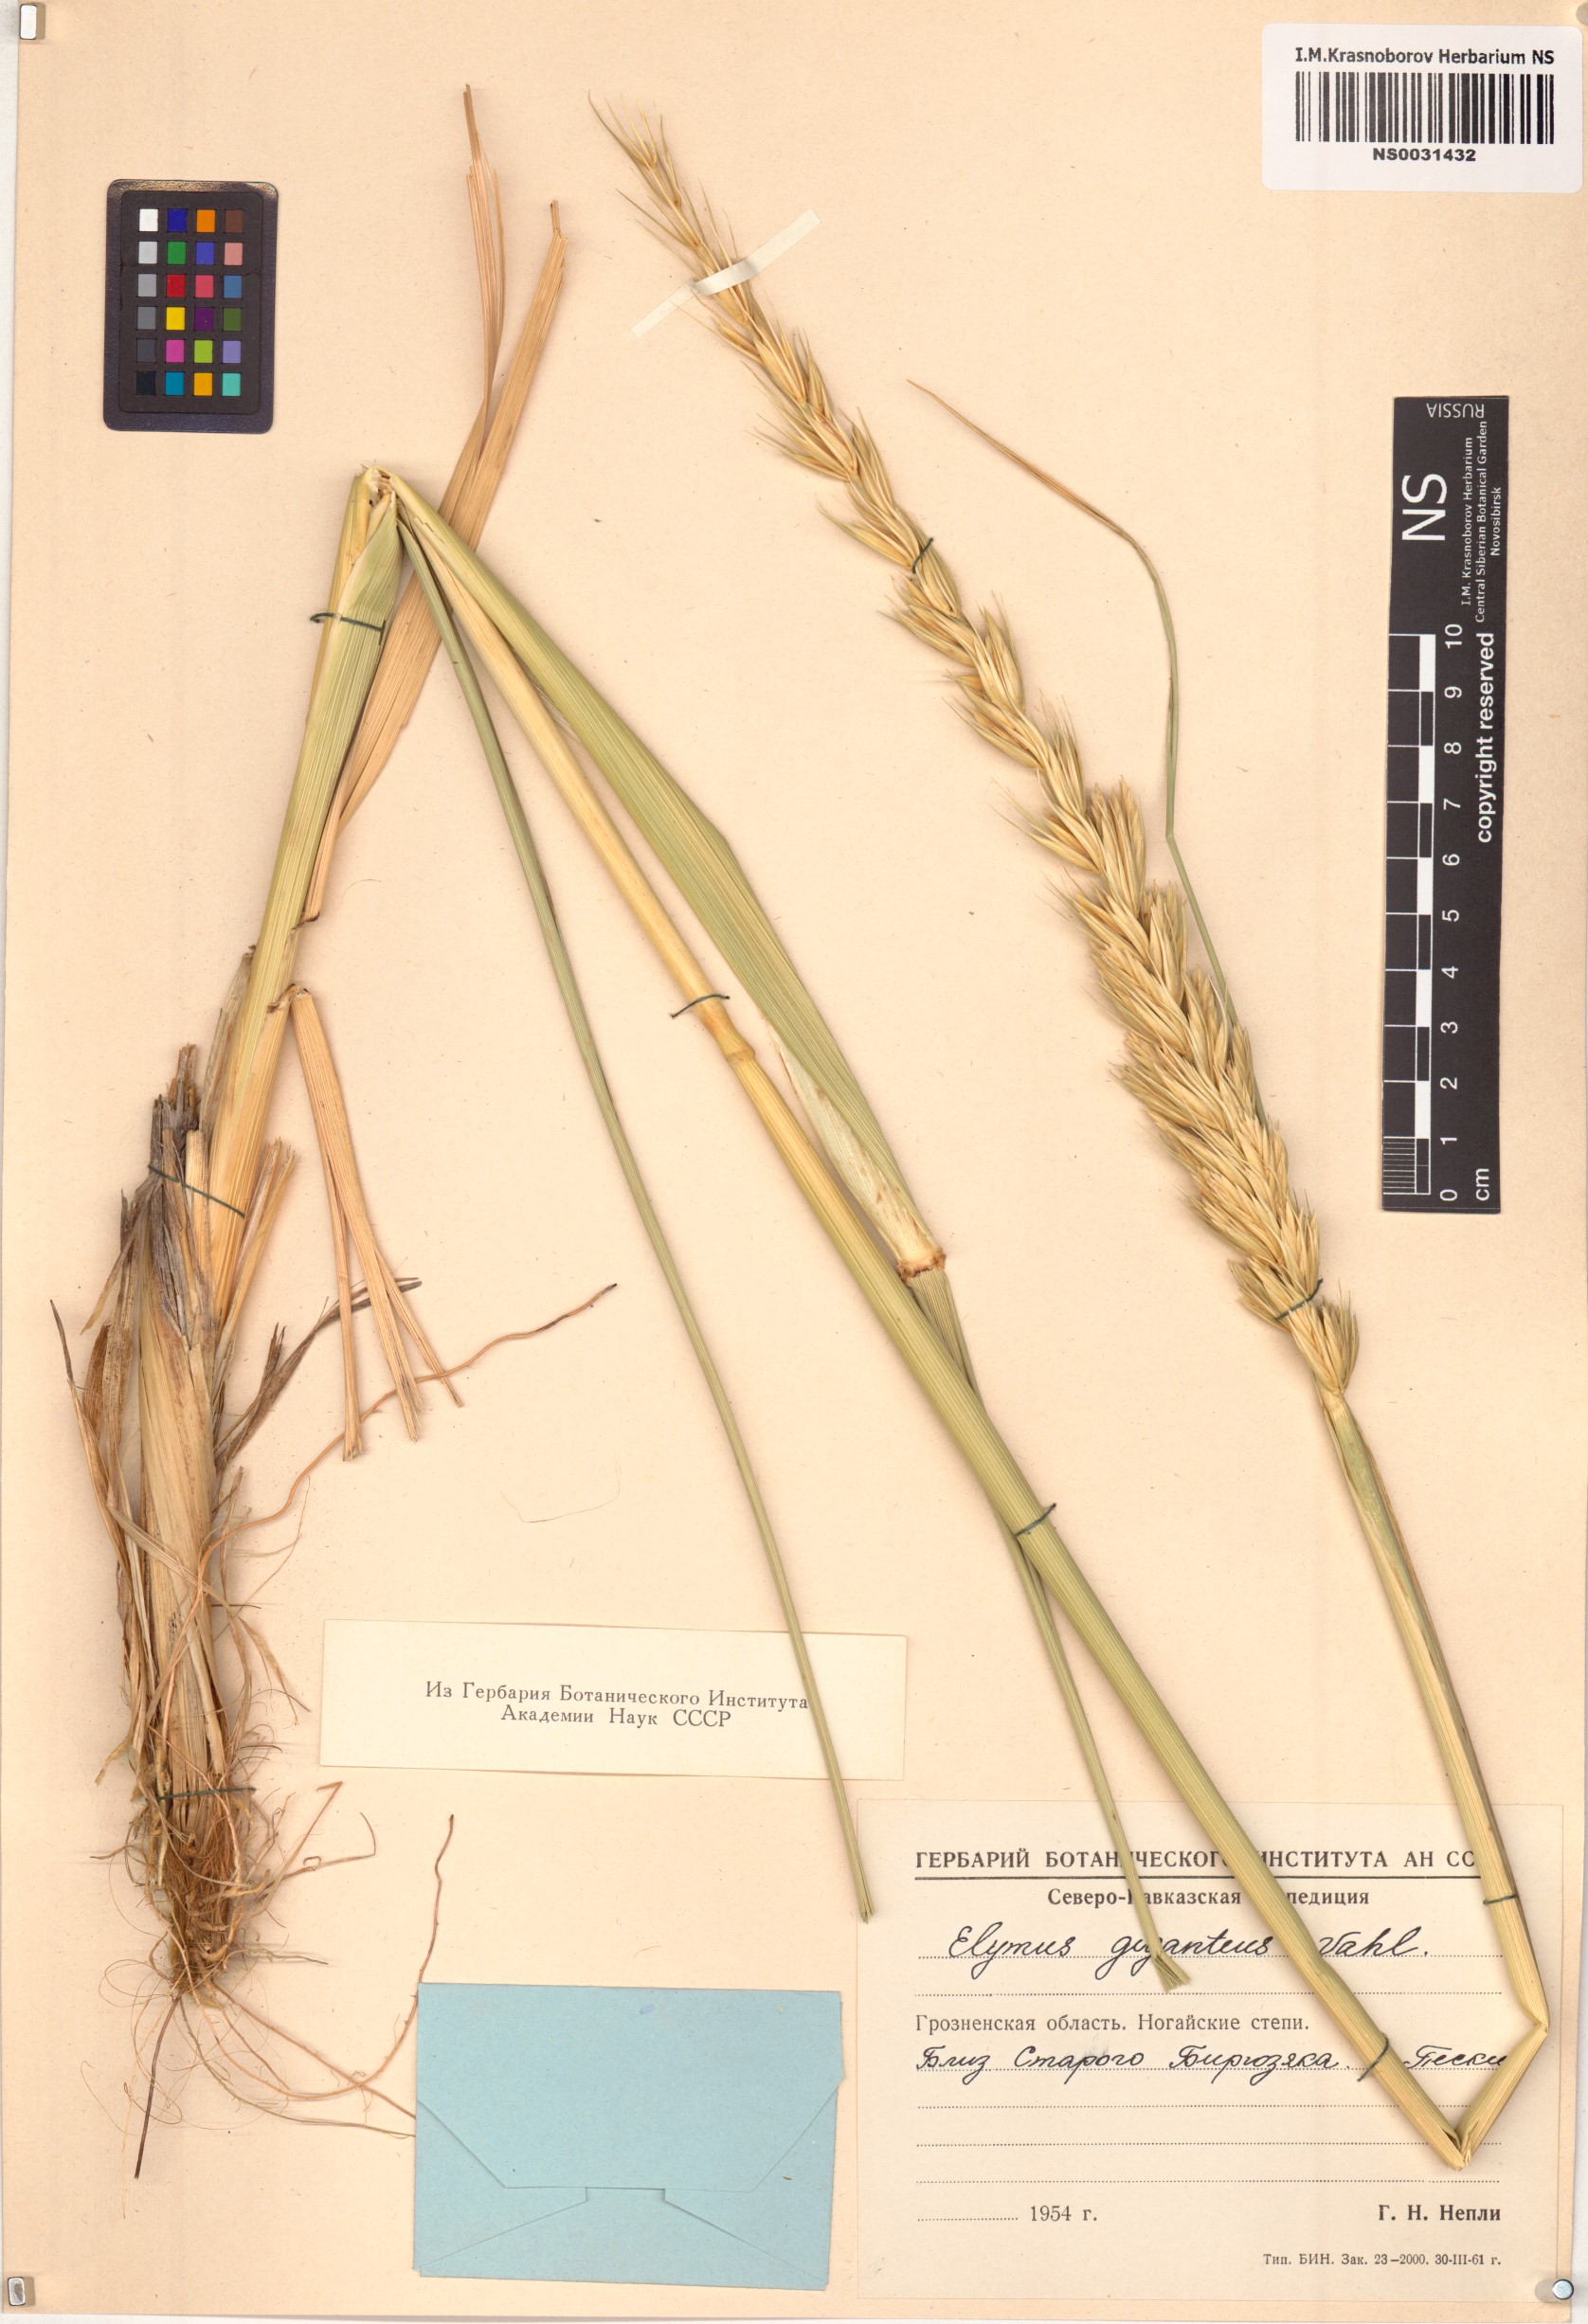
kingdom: Plantae
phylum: Tracheophyta
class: Liliopsida
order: Poales
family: Poaceae
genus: Leymus
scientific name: Leymus racemosus
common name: Mammoth wildrye
